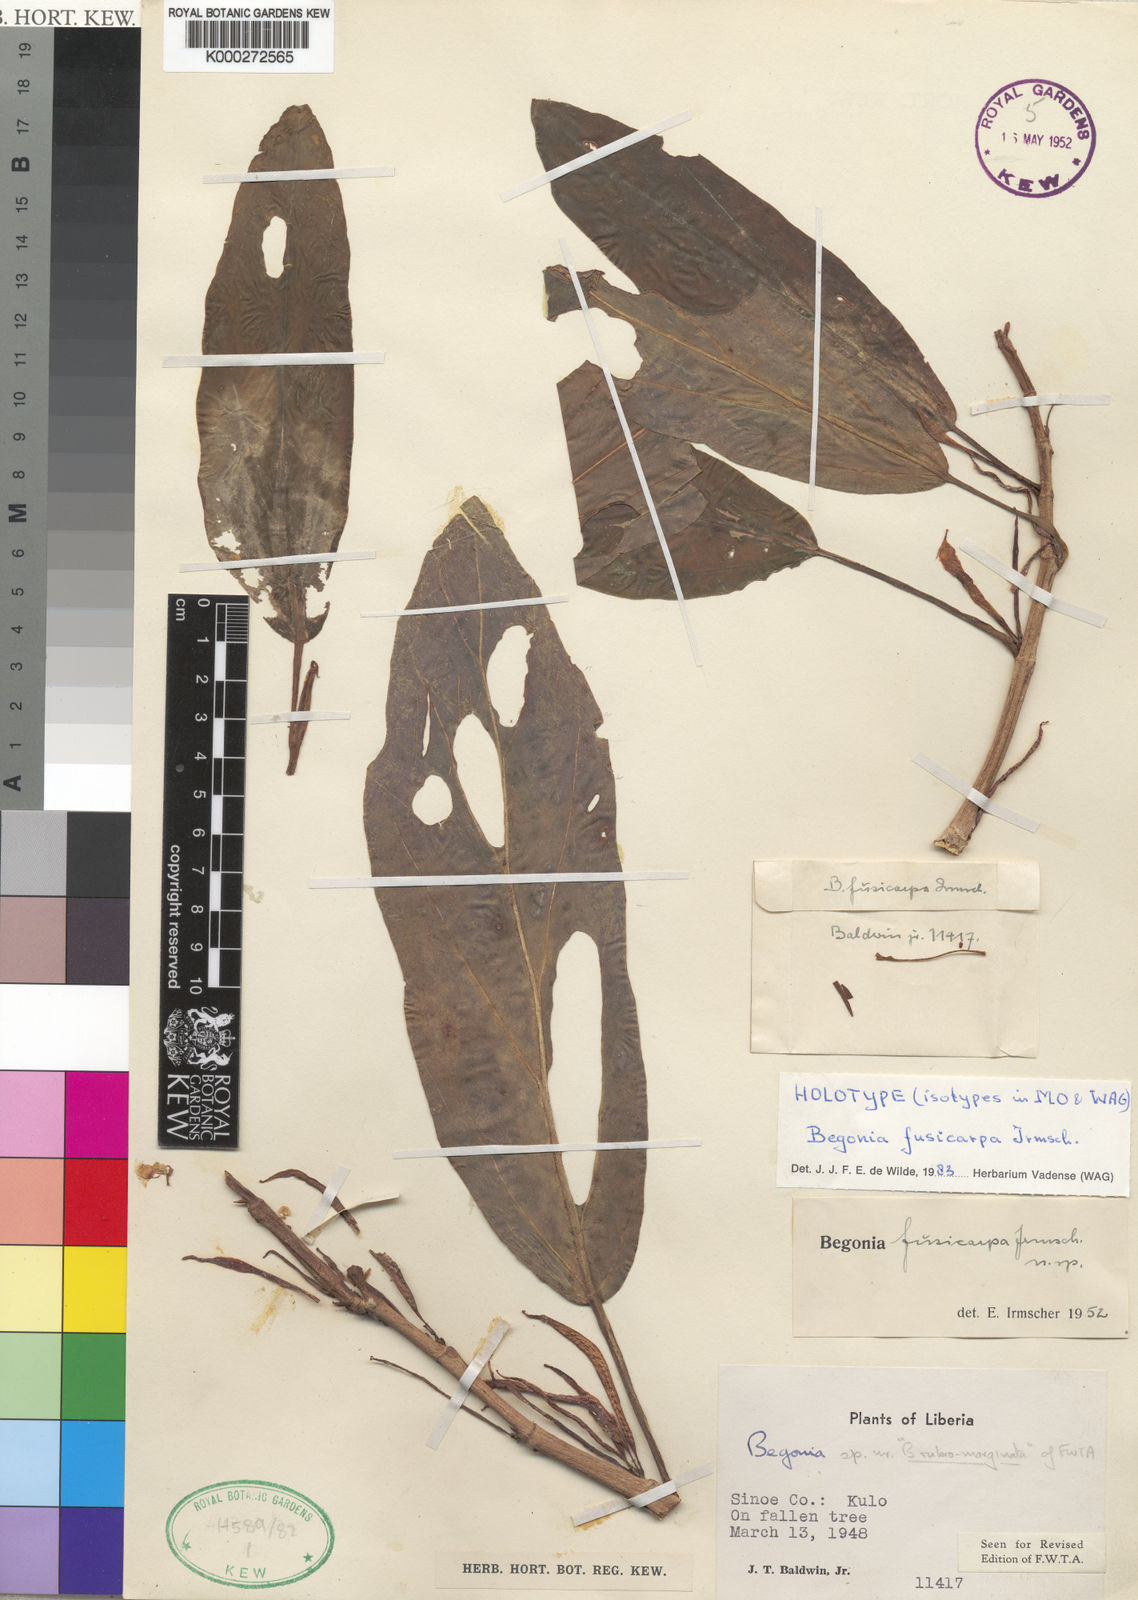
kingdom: Plantae
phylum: Tracheophyta
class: Magnoliopsida
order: Cucurbitales
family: Begoniaceae
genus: Begonia
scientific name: Begonia fusicarpa
